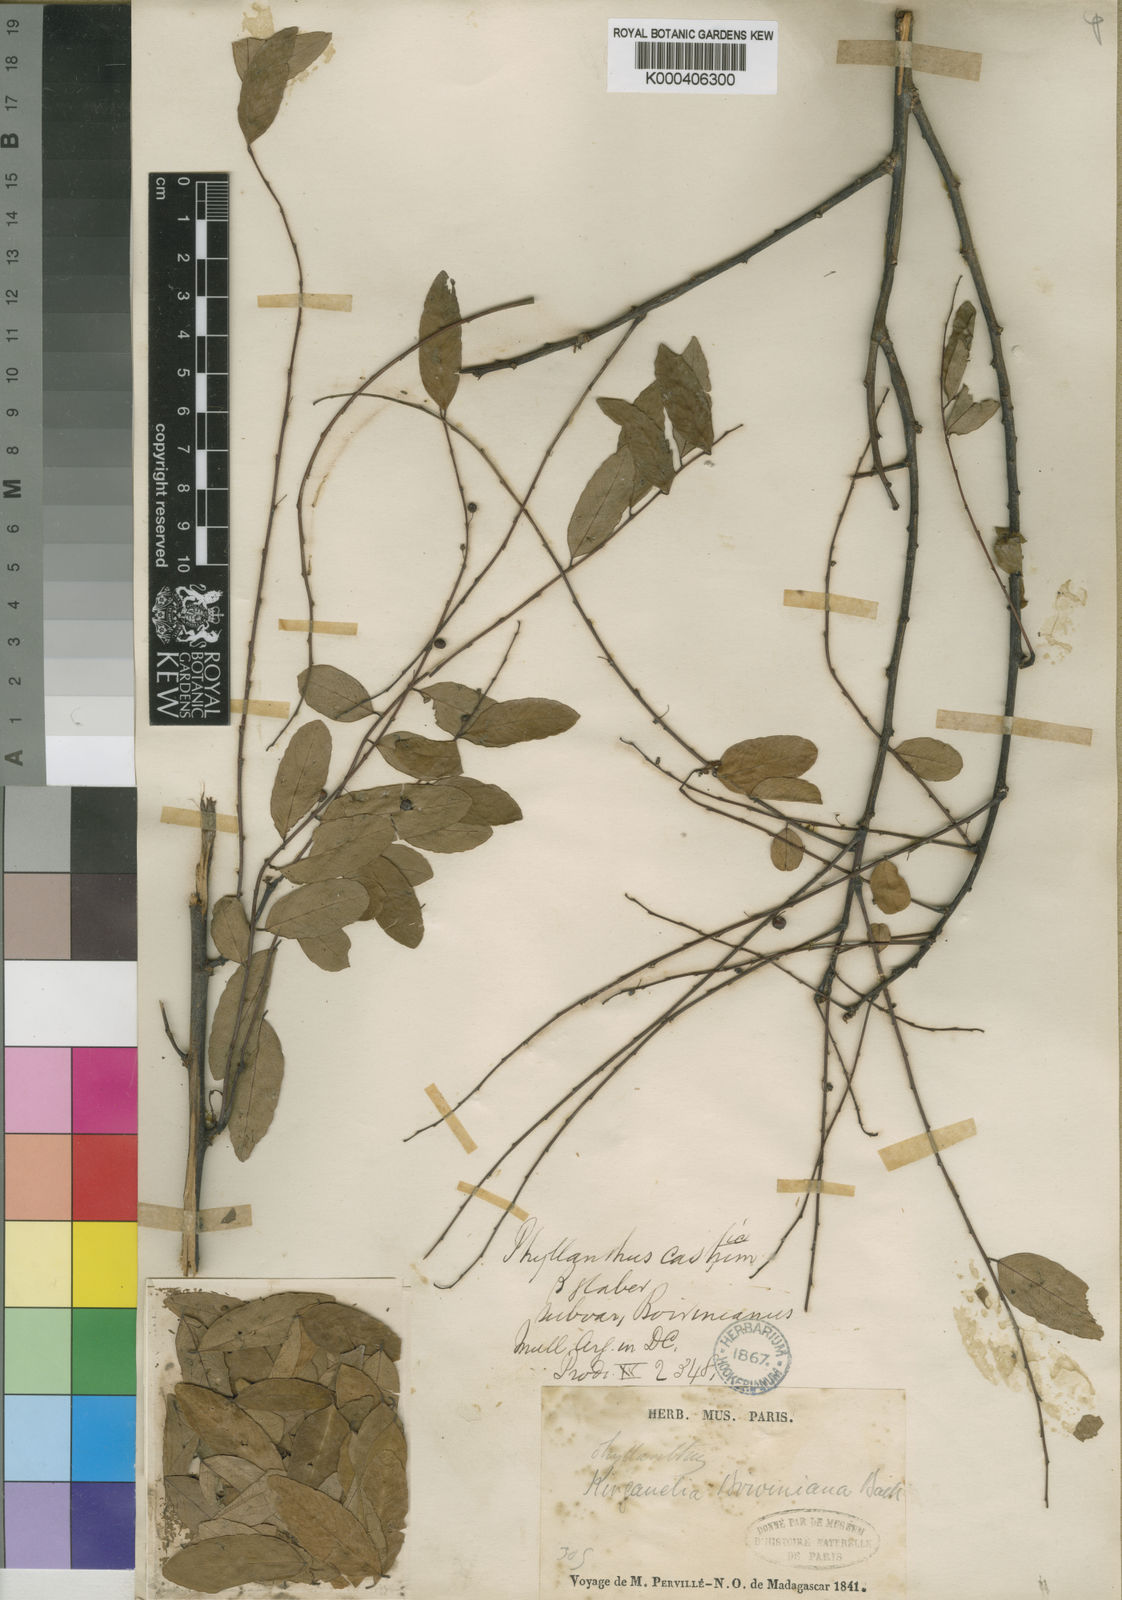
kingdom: Plantae
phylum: Tracheophyta
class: Magnoliopsida
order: Malpighiales
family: Phyllanthaceae
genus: Phyllanthus
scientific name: Phyllanthus
